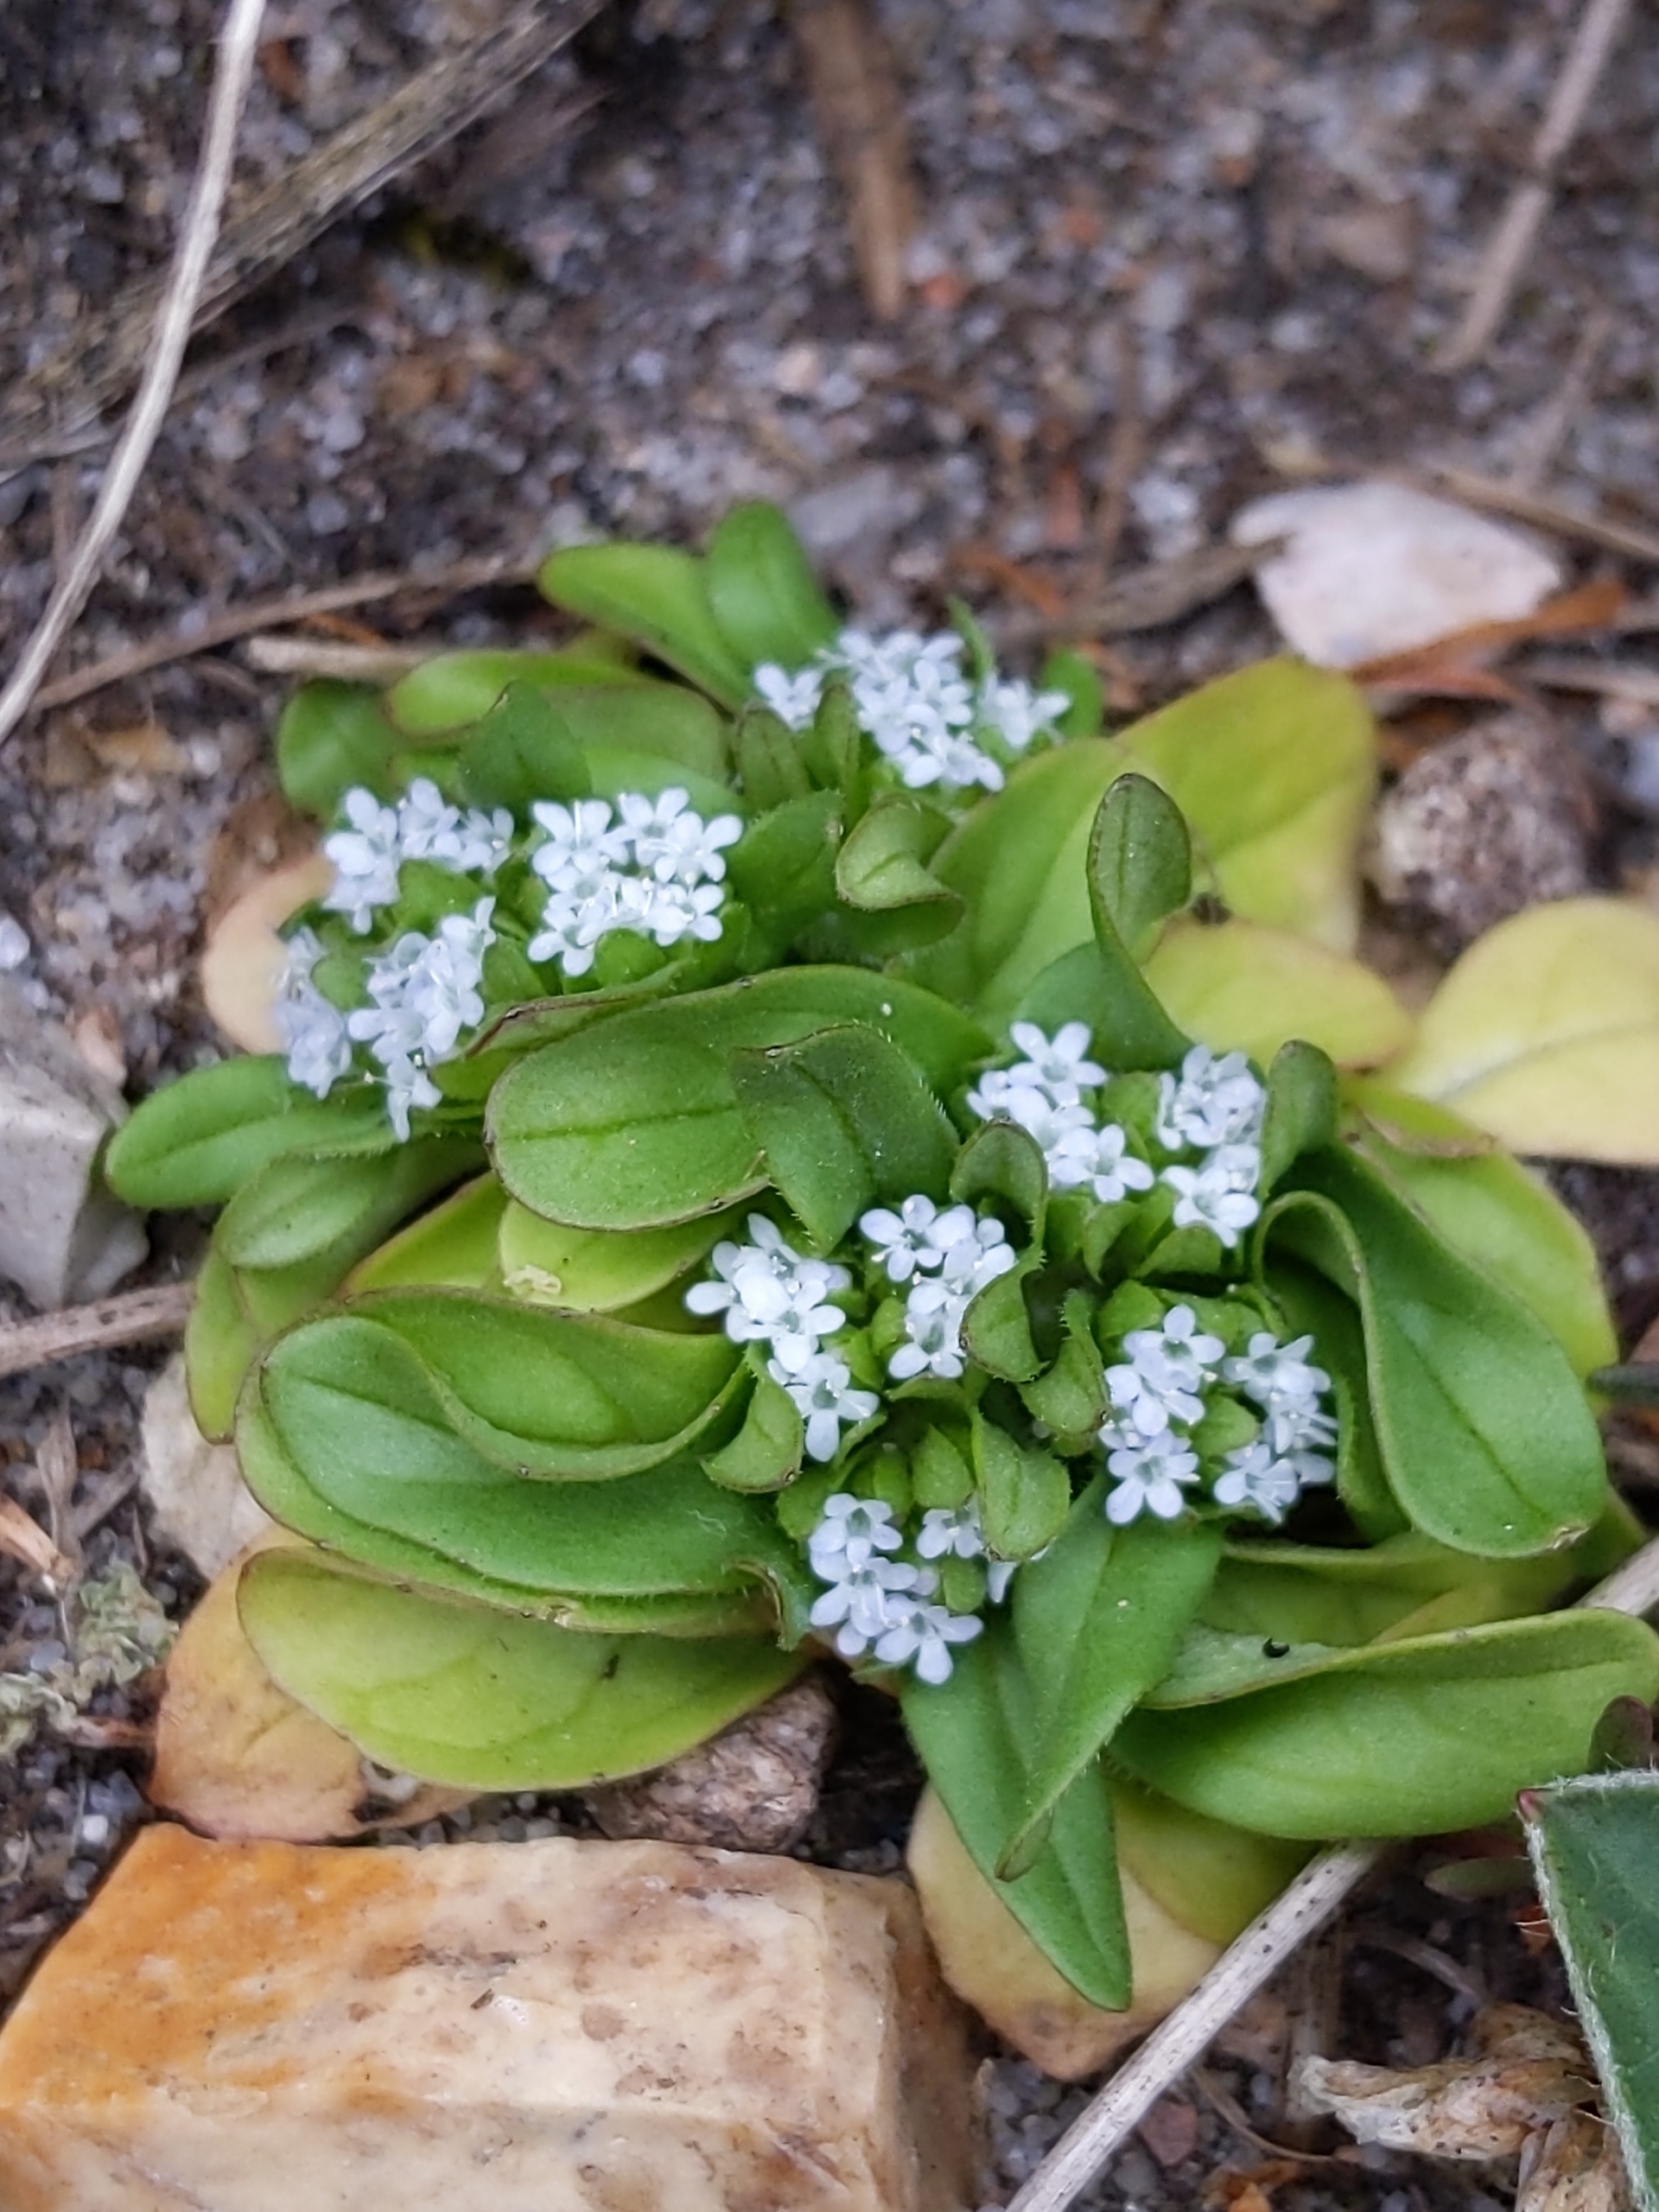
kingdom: Plantae
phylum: Tracheophyta
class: Magnoliopsida
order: Dipsacales
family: Caprifoliaceae
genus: Valerianella
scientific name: Valerianella locusta
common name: Tandfri vårsalat
